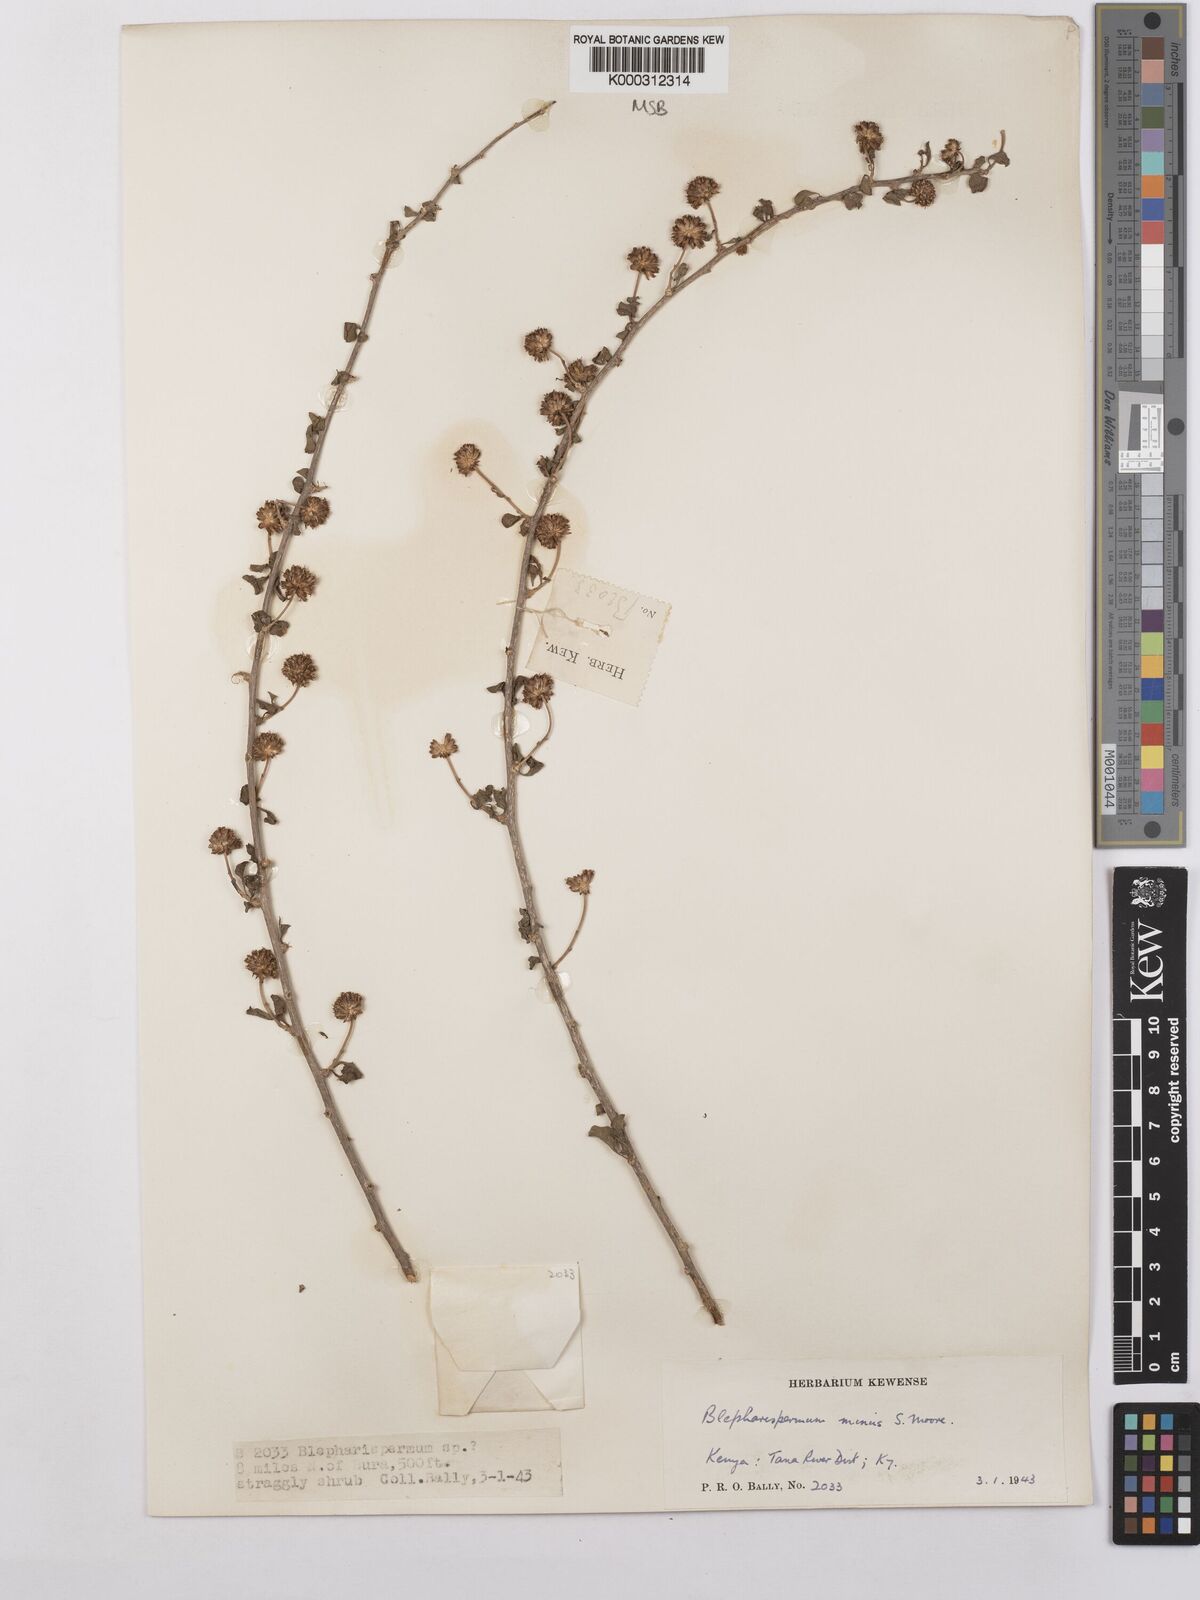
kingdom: Plantae
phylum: Tracheophyta
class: Magnoliopsida
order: Asterales
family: Asteraceae
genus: Blepharispermum
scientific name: Blepharispermum minus
